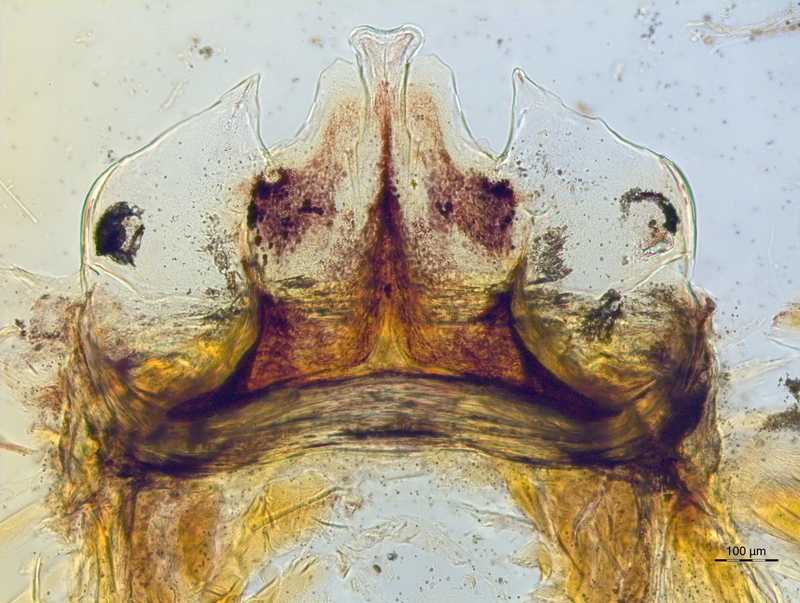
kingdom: Animalia
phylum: Arthropoda
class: Diplopoda
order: Chordeumatida
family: Craspedosomatidae
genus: Craspedosoma
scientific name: Craspedosoma taurinorum
